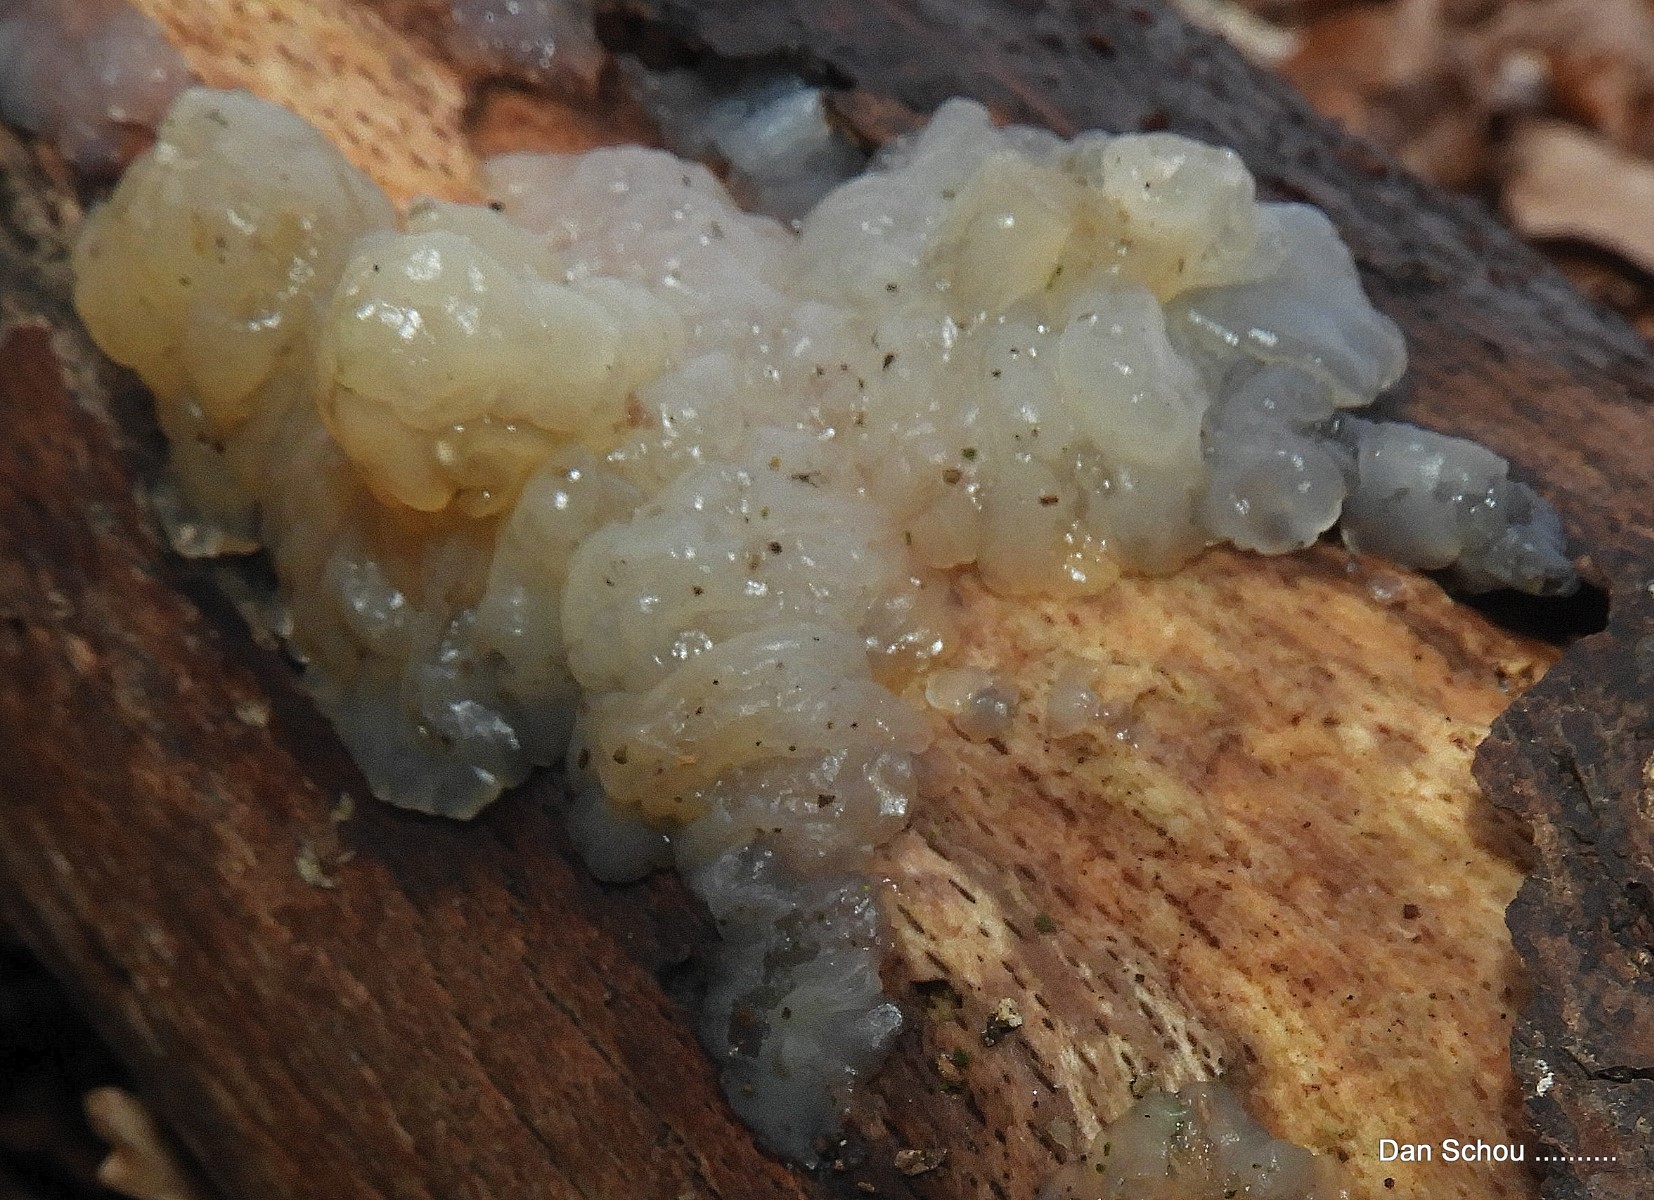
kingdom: Fungi
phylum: Basidiomycota
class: Agaricomycetes
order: Auriculariales
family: Hyaloriaceae
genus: Myxarium
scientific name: Myxarium nucleatum
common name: klar bævretop
